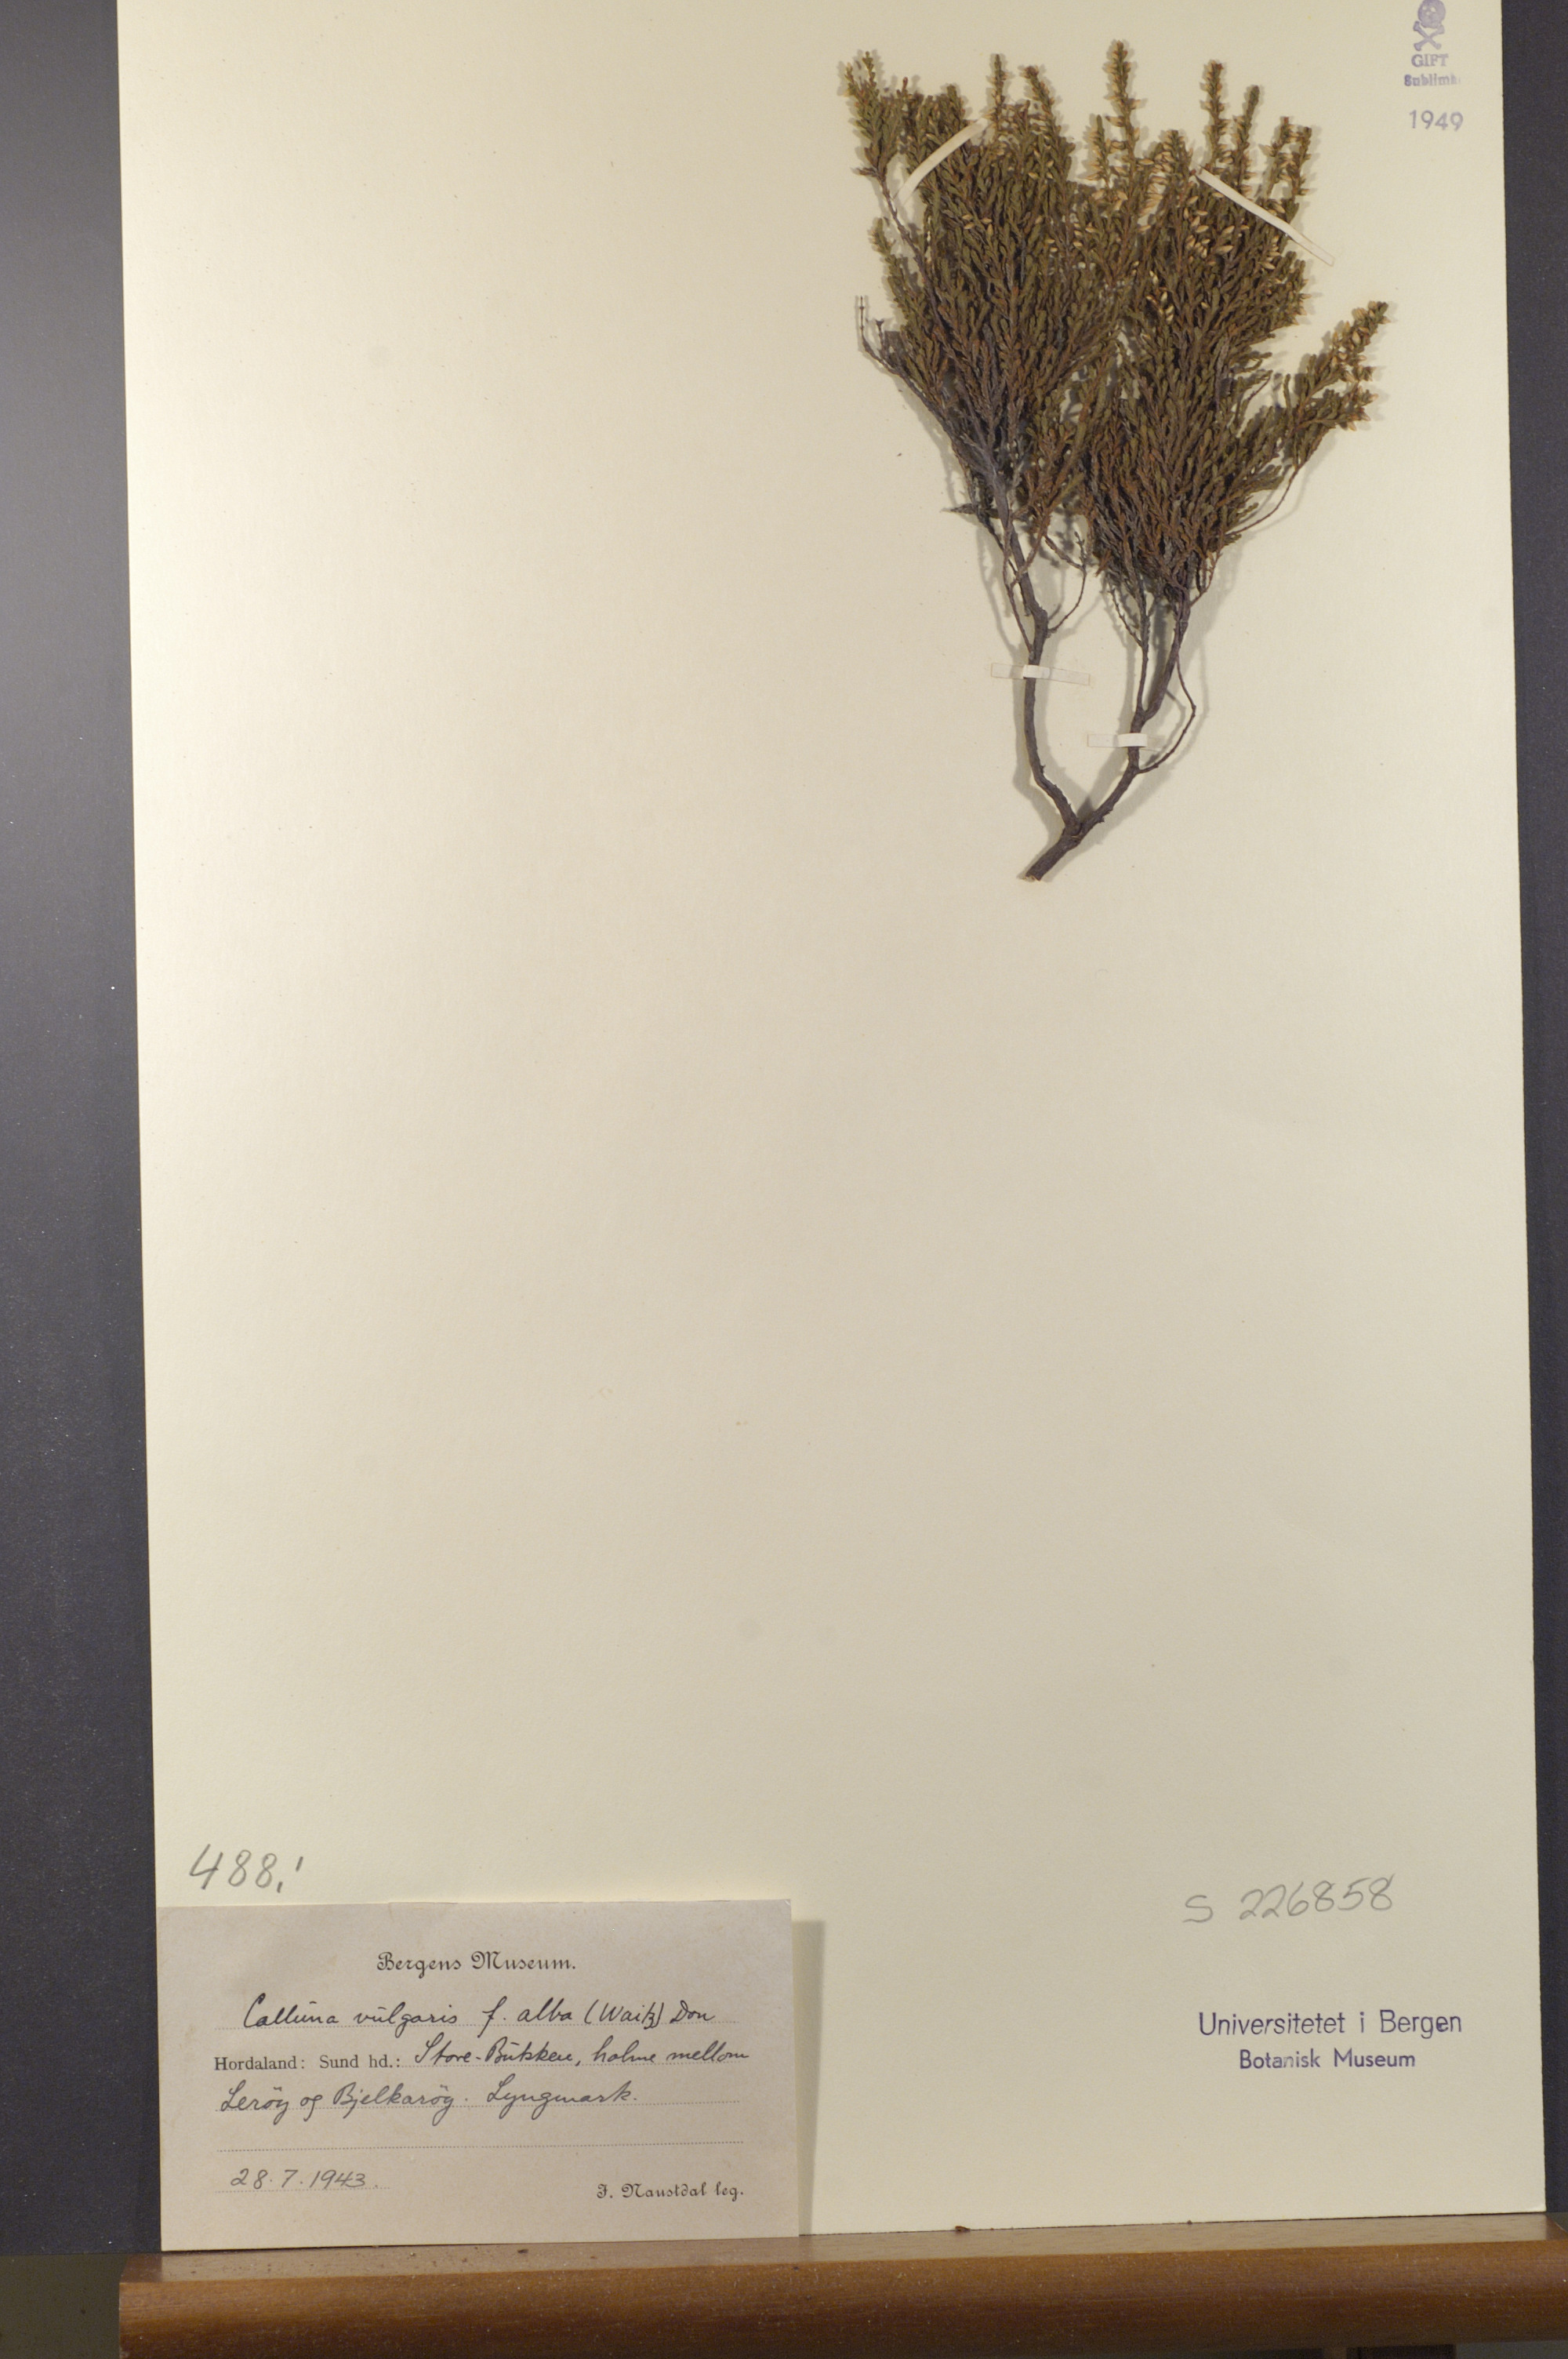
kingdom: Plantae
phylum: Tracheophyta
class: Magnoliopsida
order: Ericales
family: Ericaceae
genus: Calluna
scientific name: Calluna vulgaris
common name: Heather
